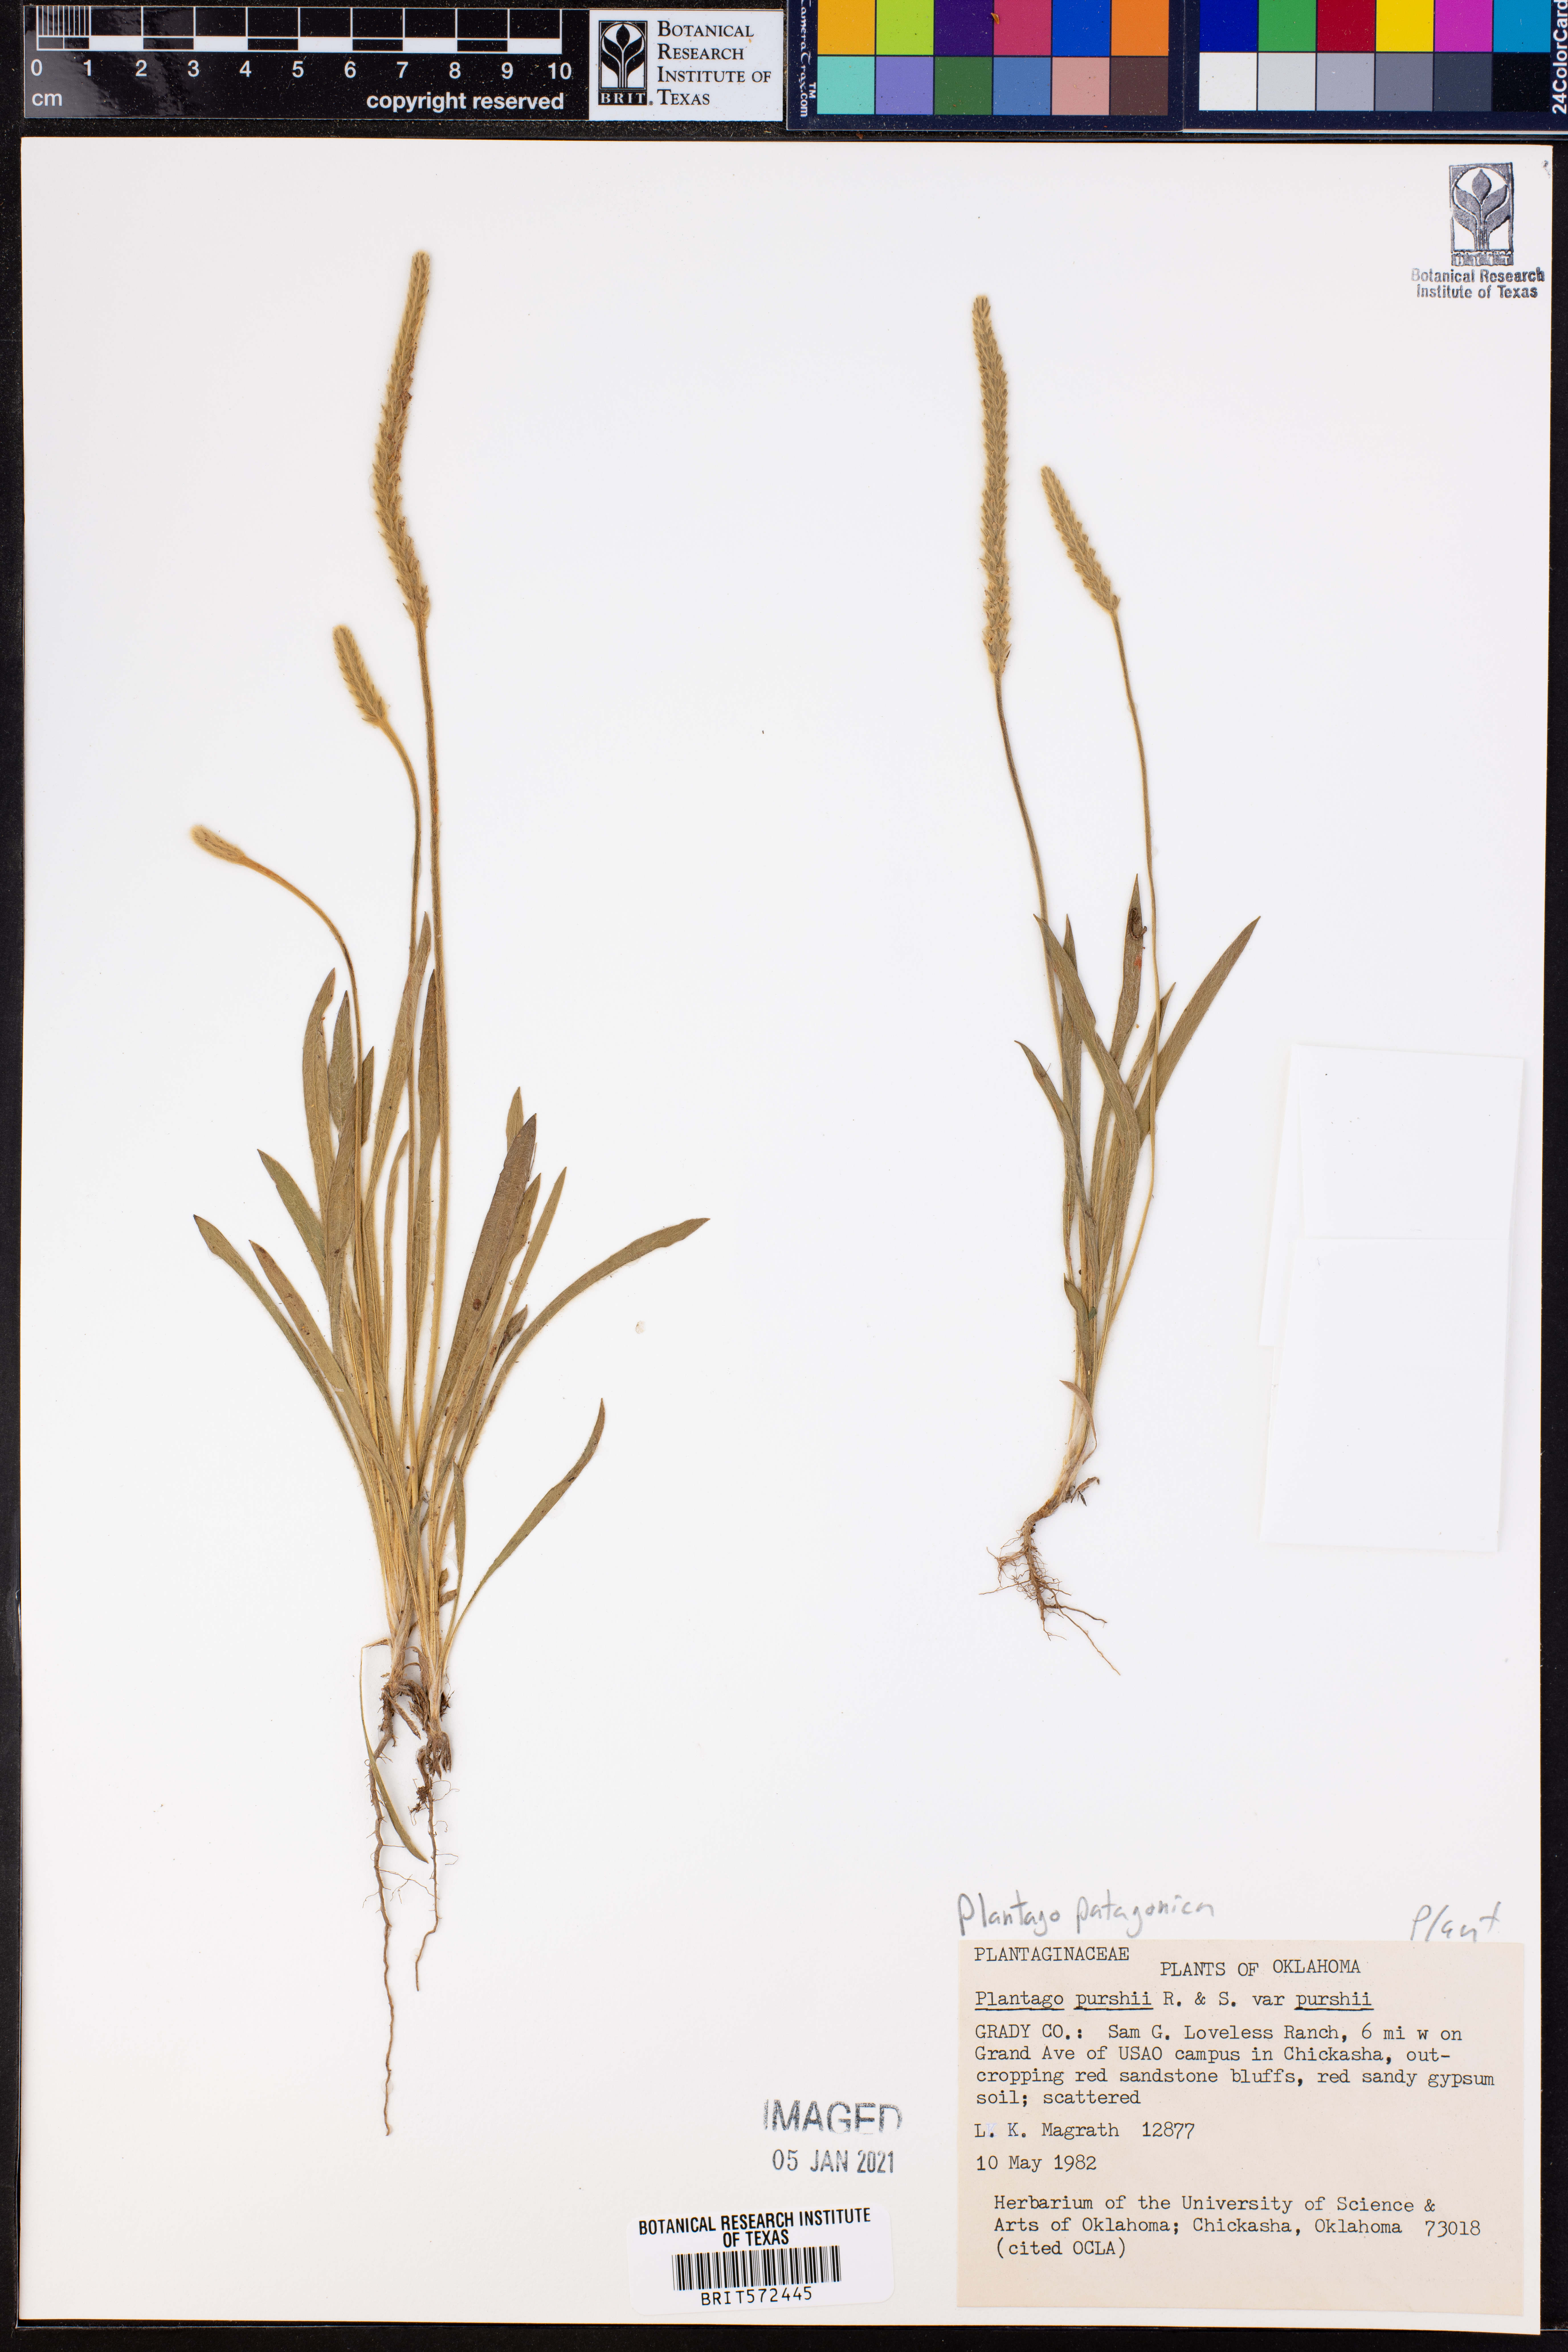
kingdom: Plantae
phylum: Tracheophyta
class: Magnoliopsida
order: Lamiales
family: Plantaginaceae
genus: Plantago
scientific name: Plantago patagonica
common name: Patagonia indian-wheat
